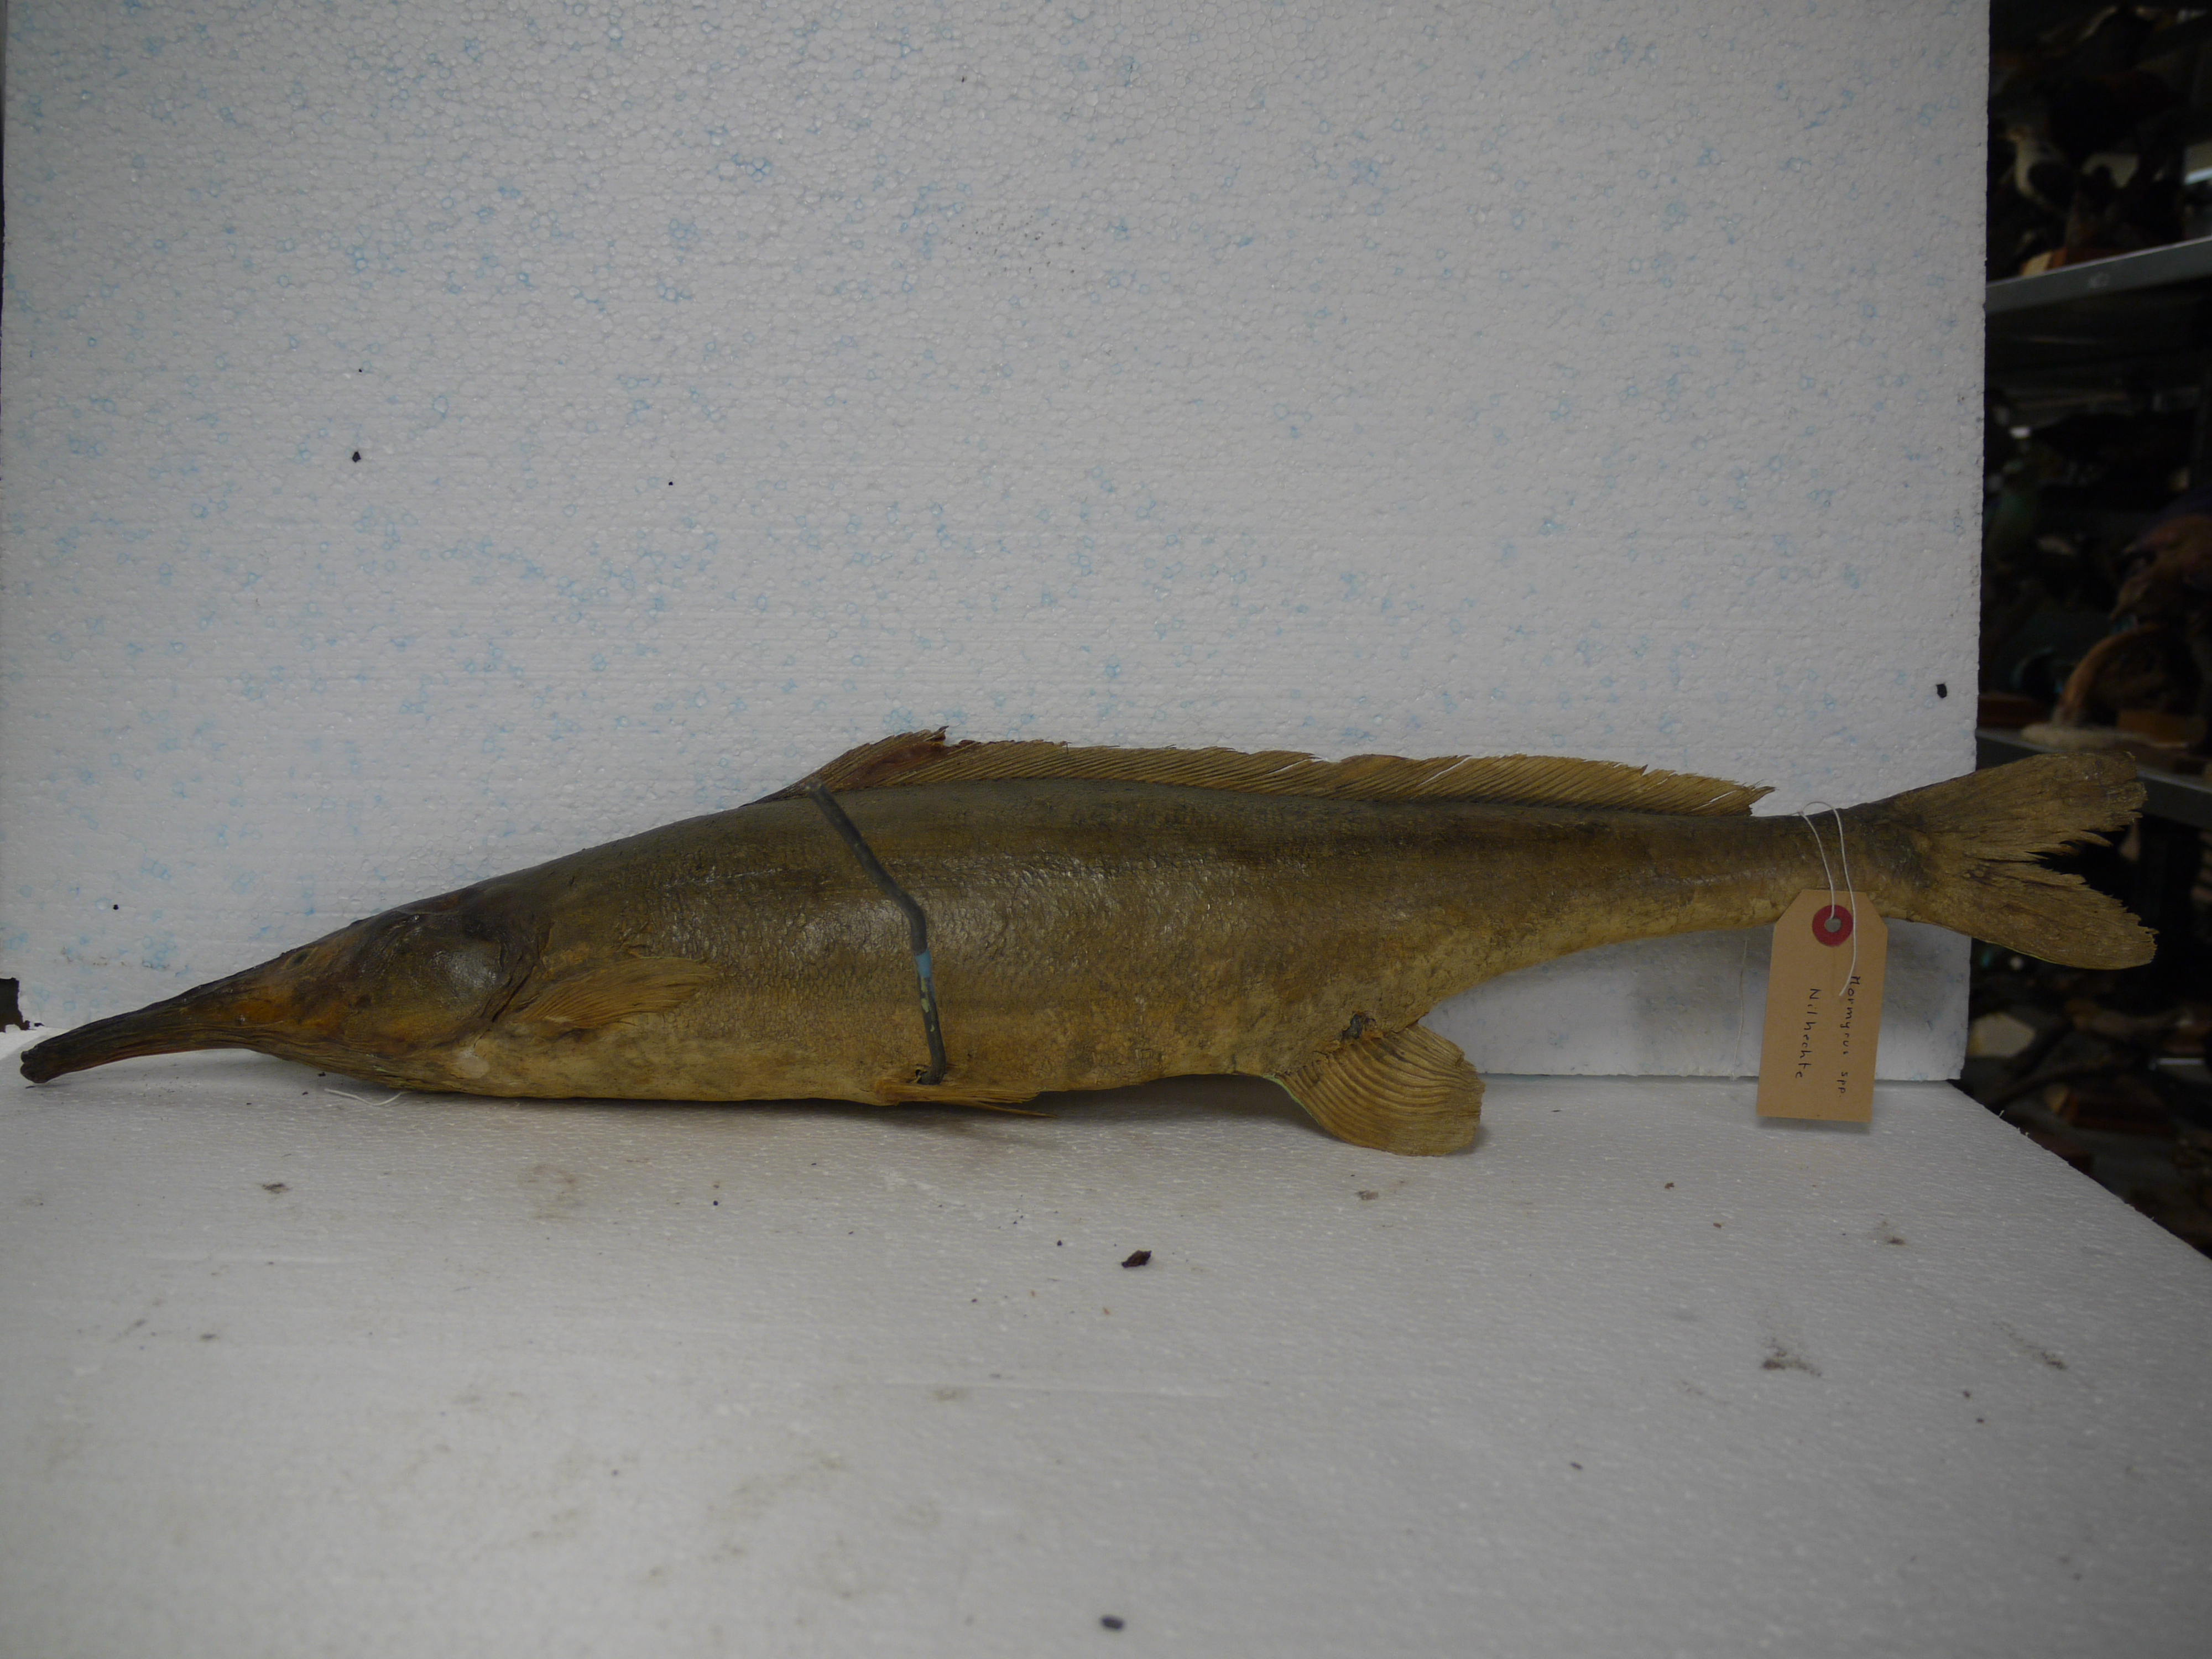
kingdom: Animalia
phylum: Chordata
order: Osteoglossiformes
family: Mormyridae
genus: Mormyrops
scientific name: Mormyrops
